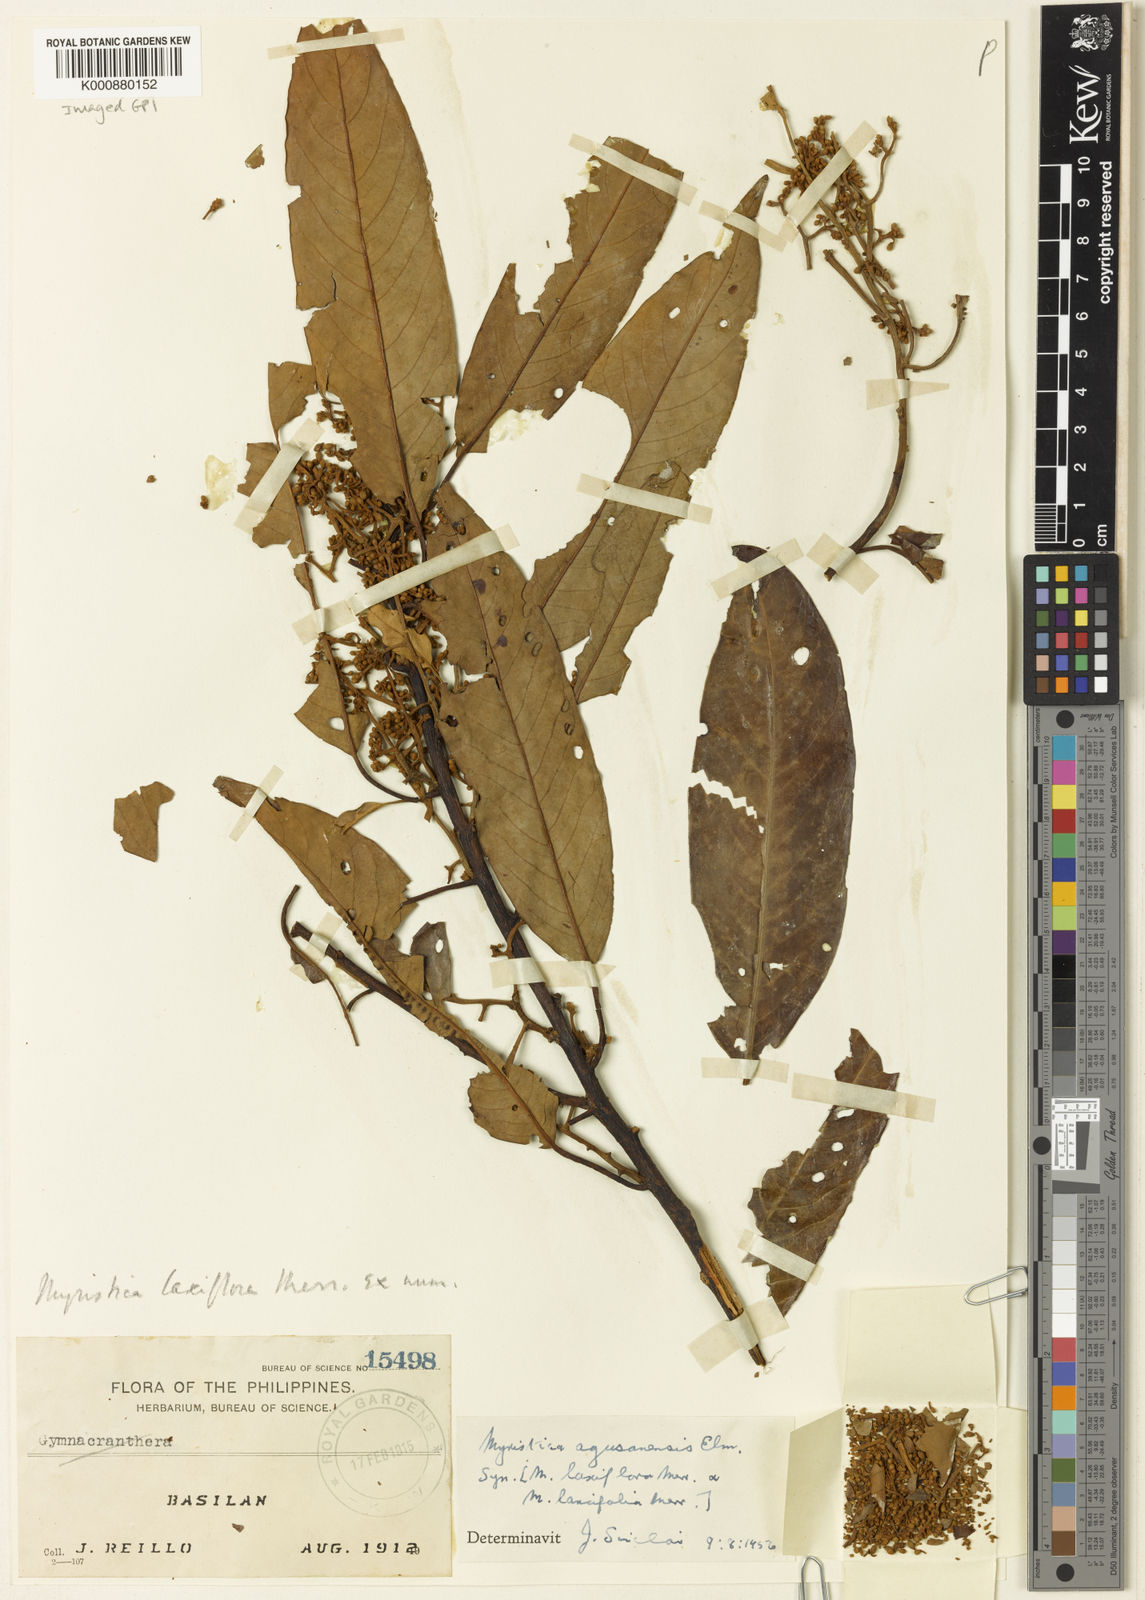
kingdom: Plantae
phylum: Tracheophyta
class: Magnoliopsida
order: Magnoliales
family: Myristicaceae
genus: Myristica
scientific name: Myristica agusanensis
